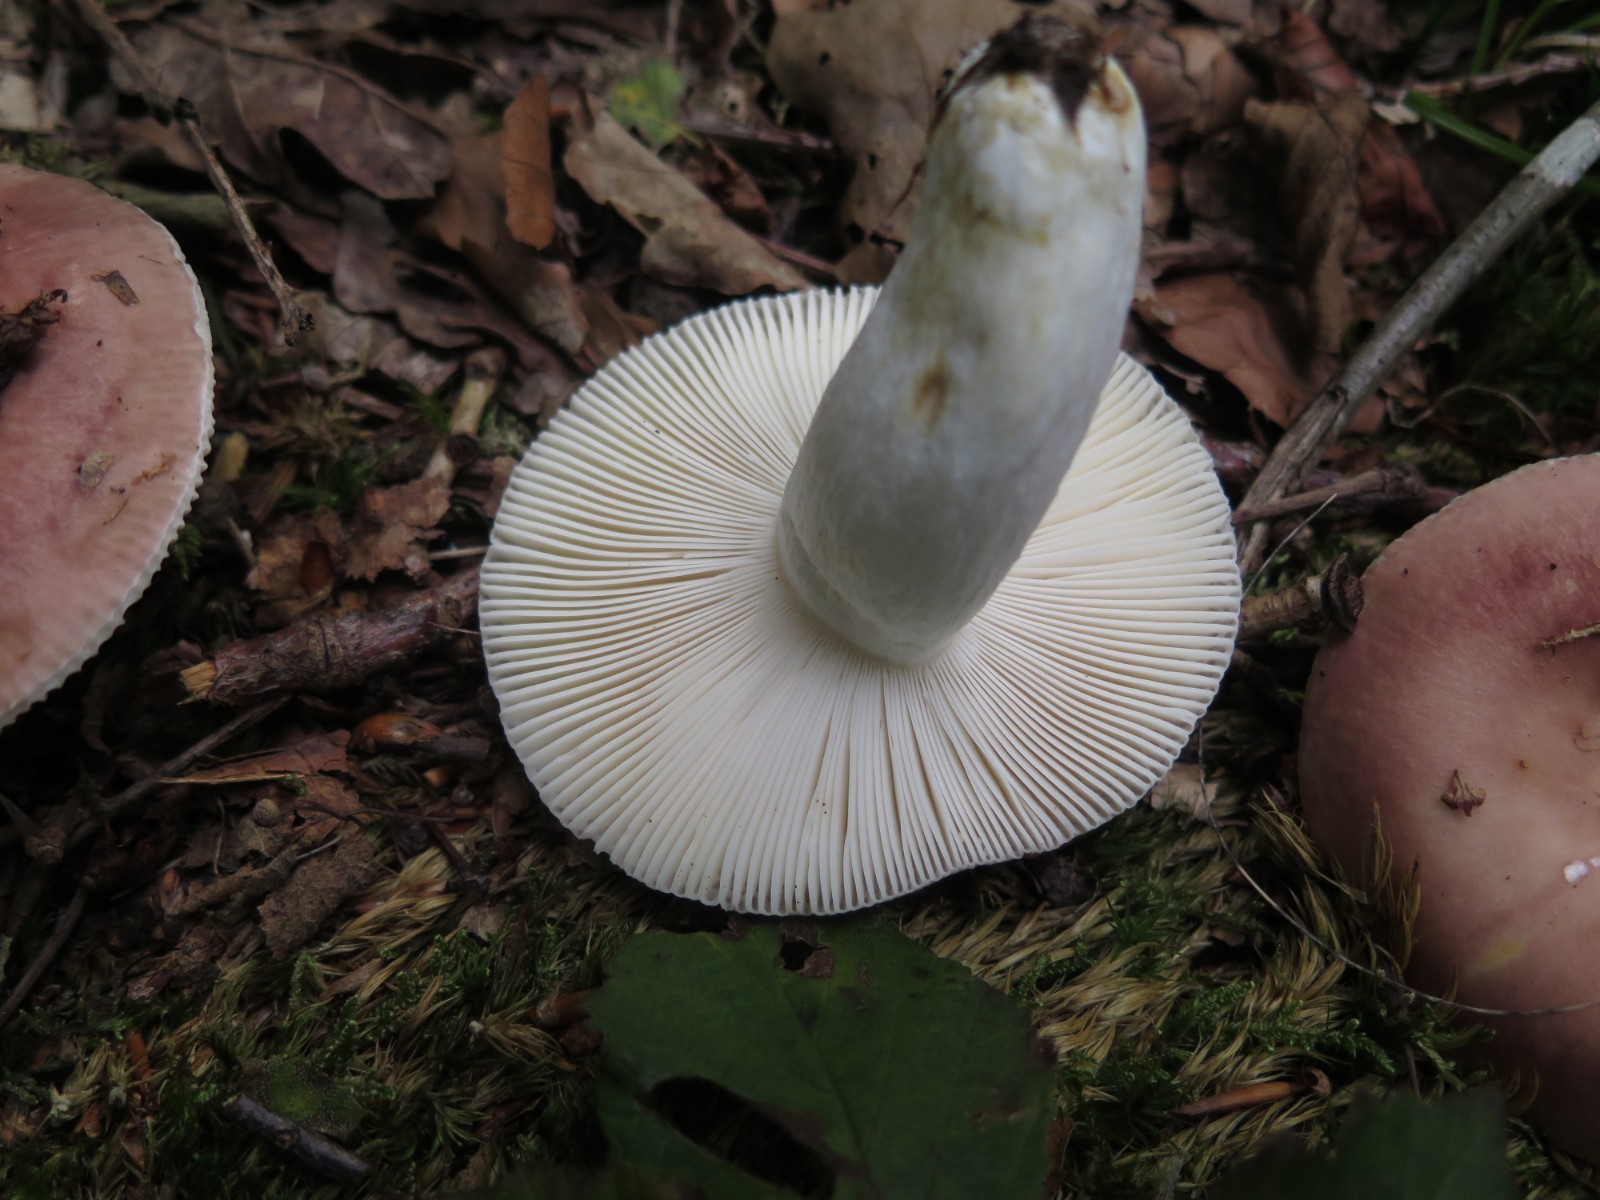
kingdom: Fungi
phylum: Basidiomycota
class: Agaricomycetes
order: Russulales
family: Russulaceae
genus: Russula
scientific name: Russula vesca
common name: spiselig skørhat
